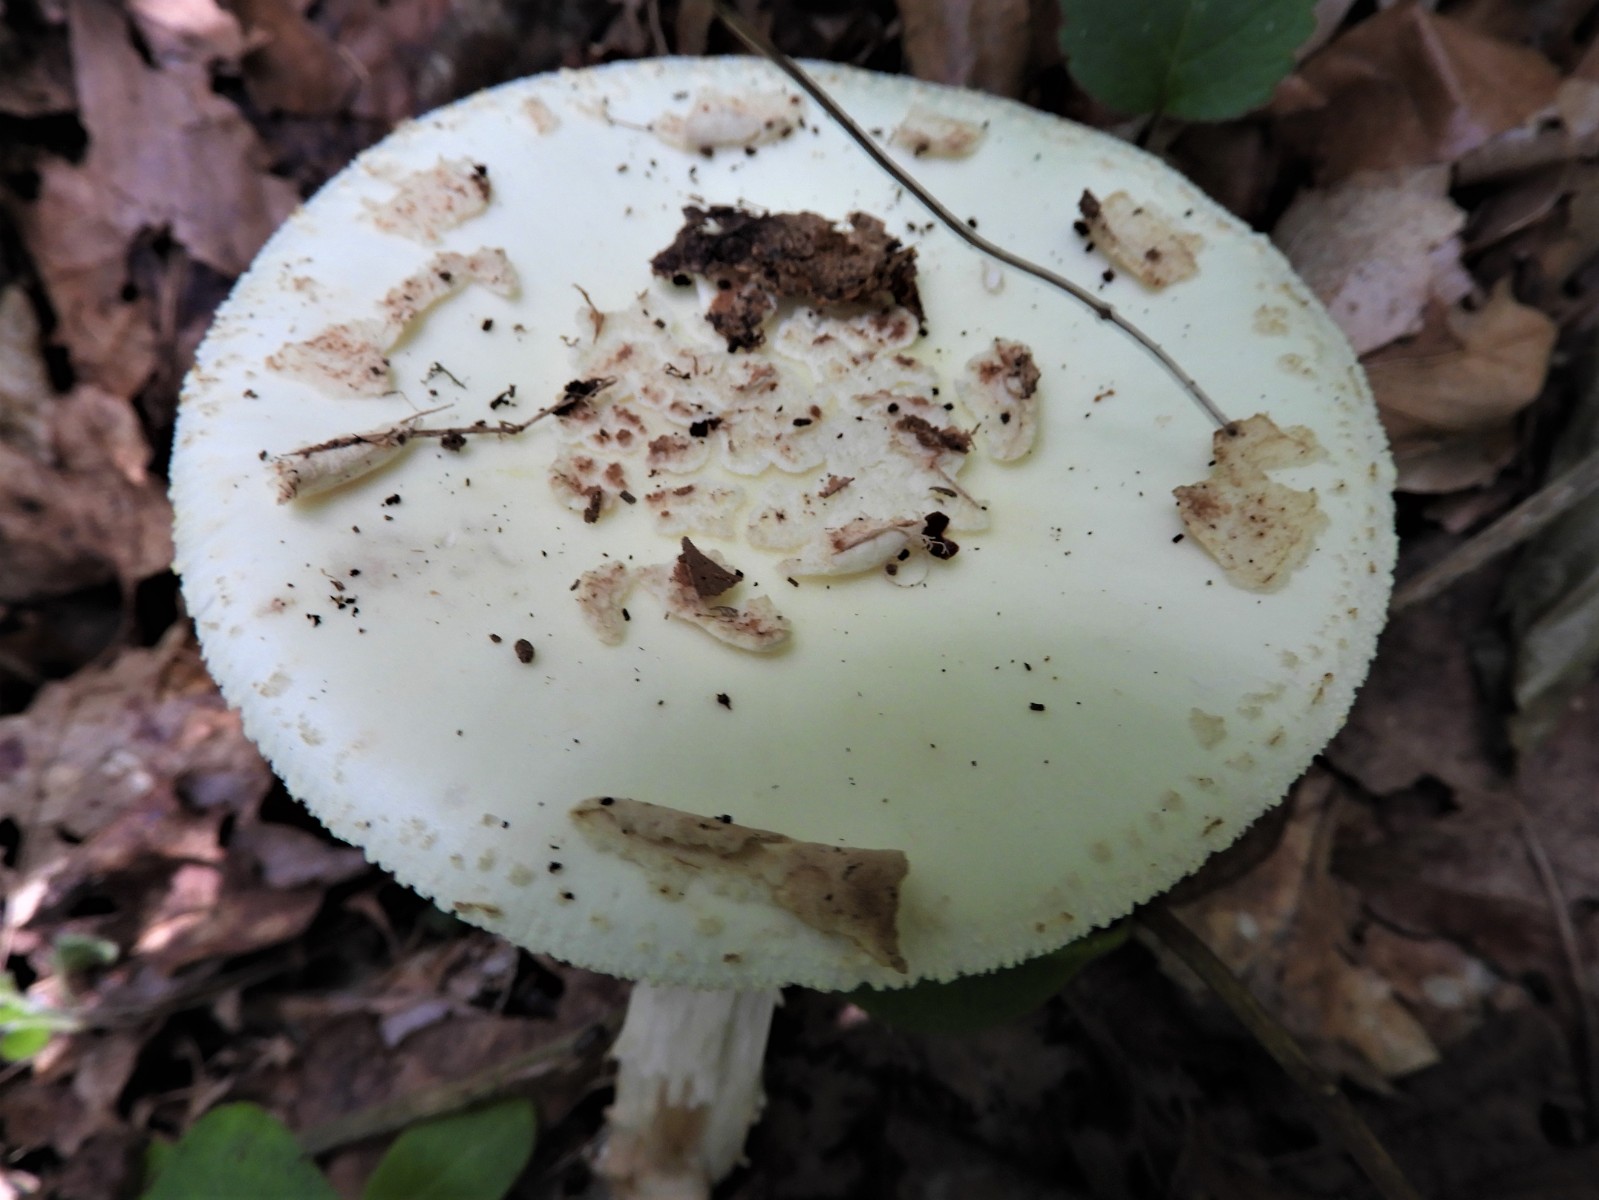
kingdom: Fungi
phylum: Basidiomycota
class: Agaricomycetes
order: Agaricales
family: Amanitaceae
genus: Amanita
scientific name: Amanita citrina
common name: kugleknoldet fluesvamp
